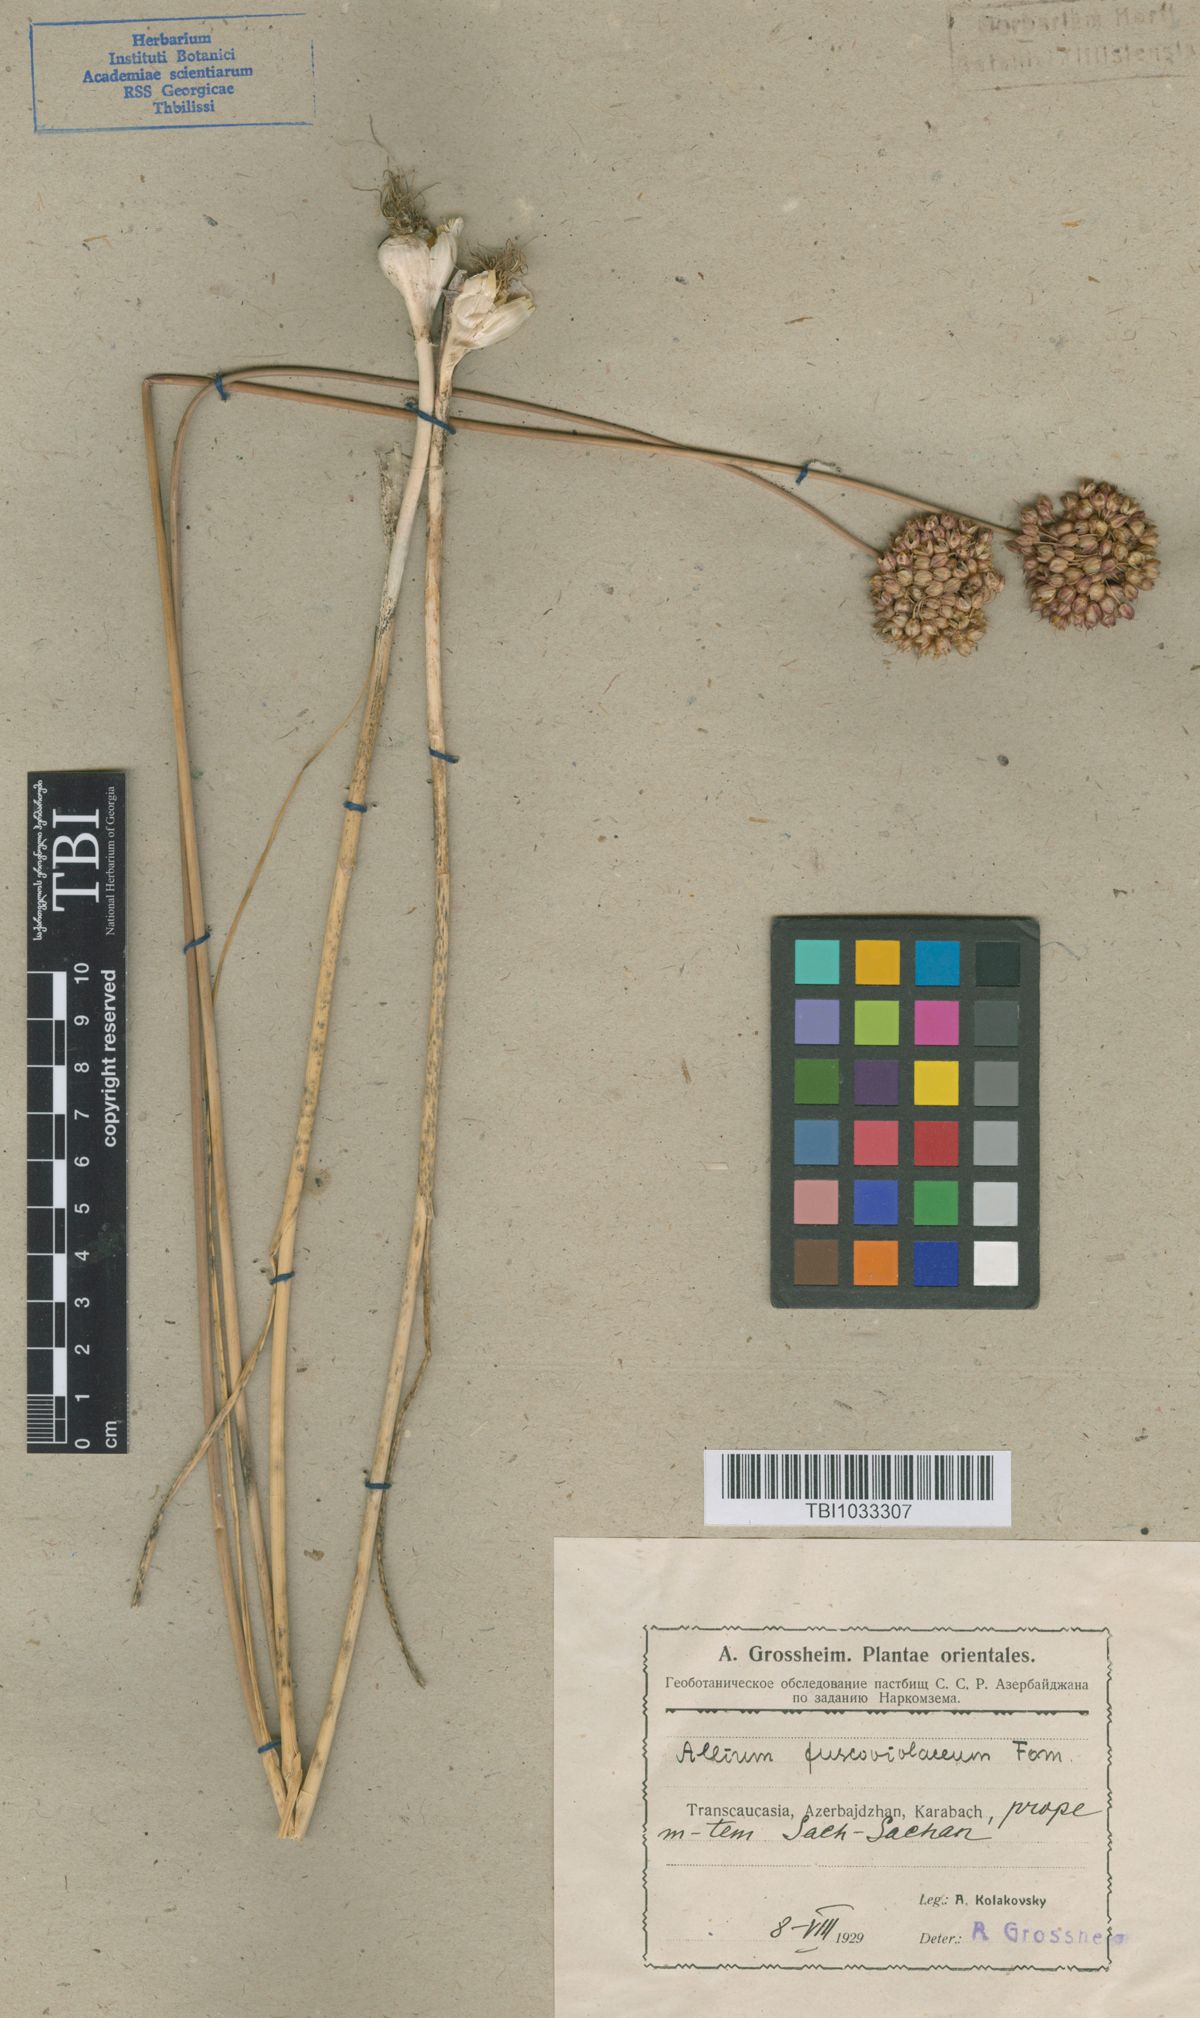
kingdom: Plantae
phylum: Tracheophyta
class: Liliopsida
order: Asparagales
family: Amaryllidaceae
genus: Allium
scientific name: Allium fuscoviolaceum
